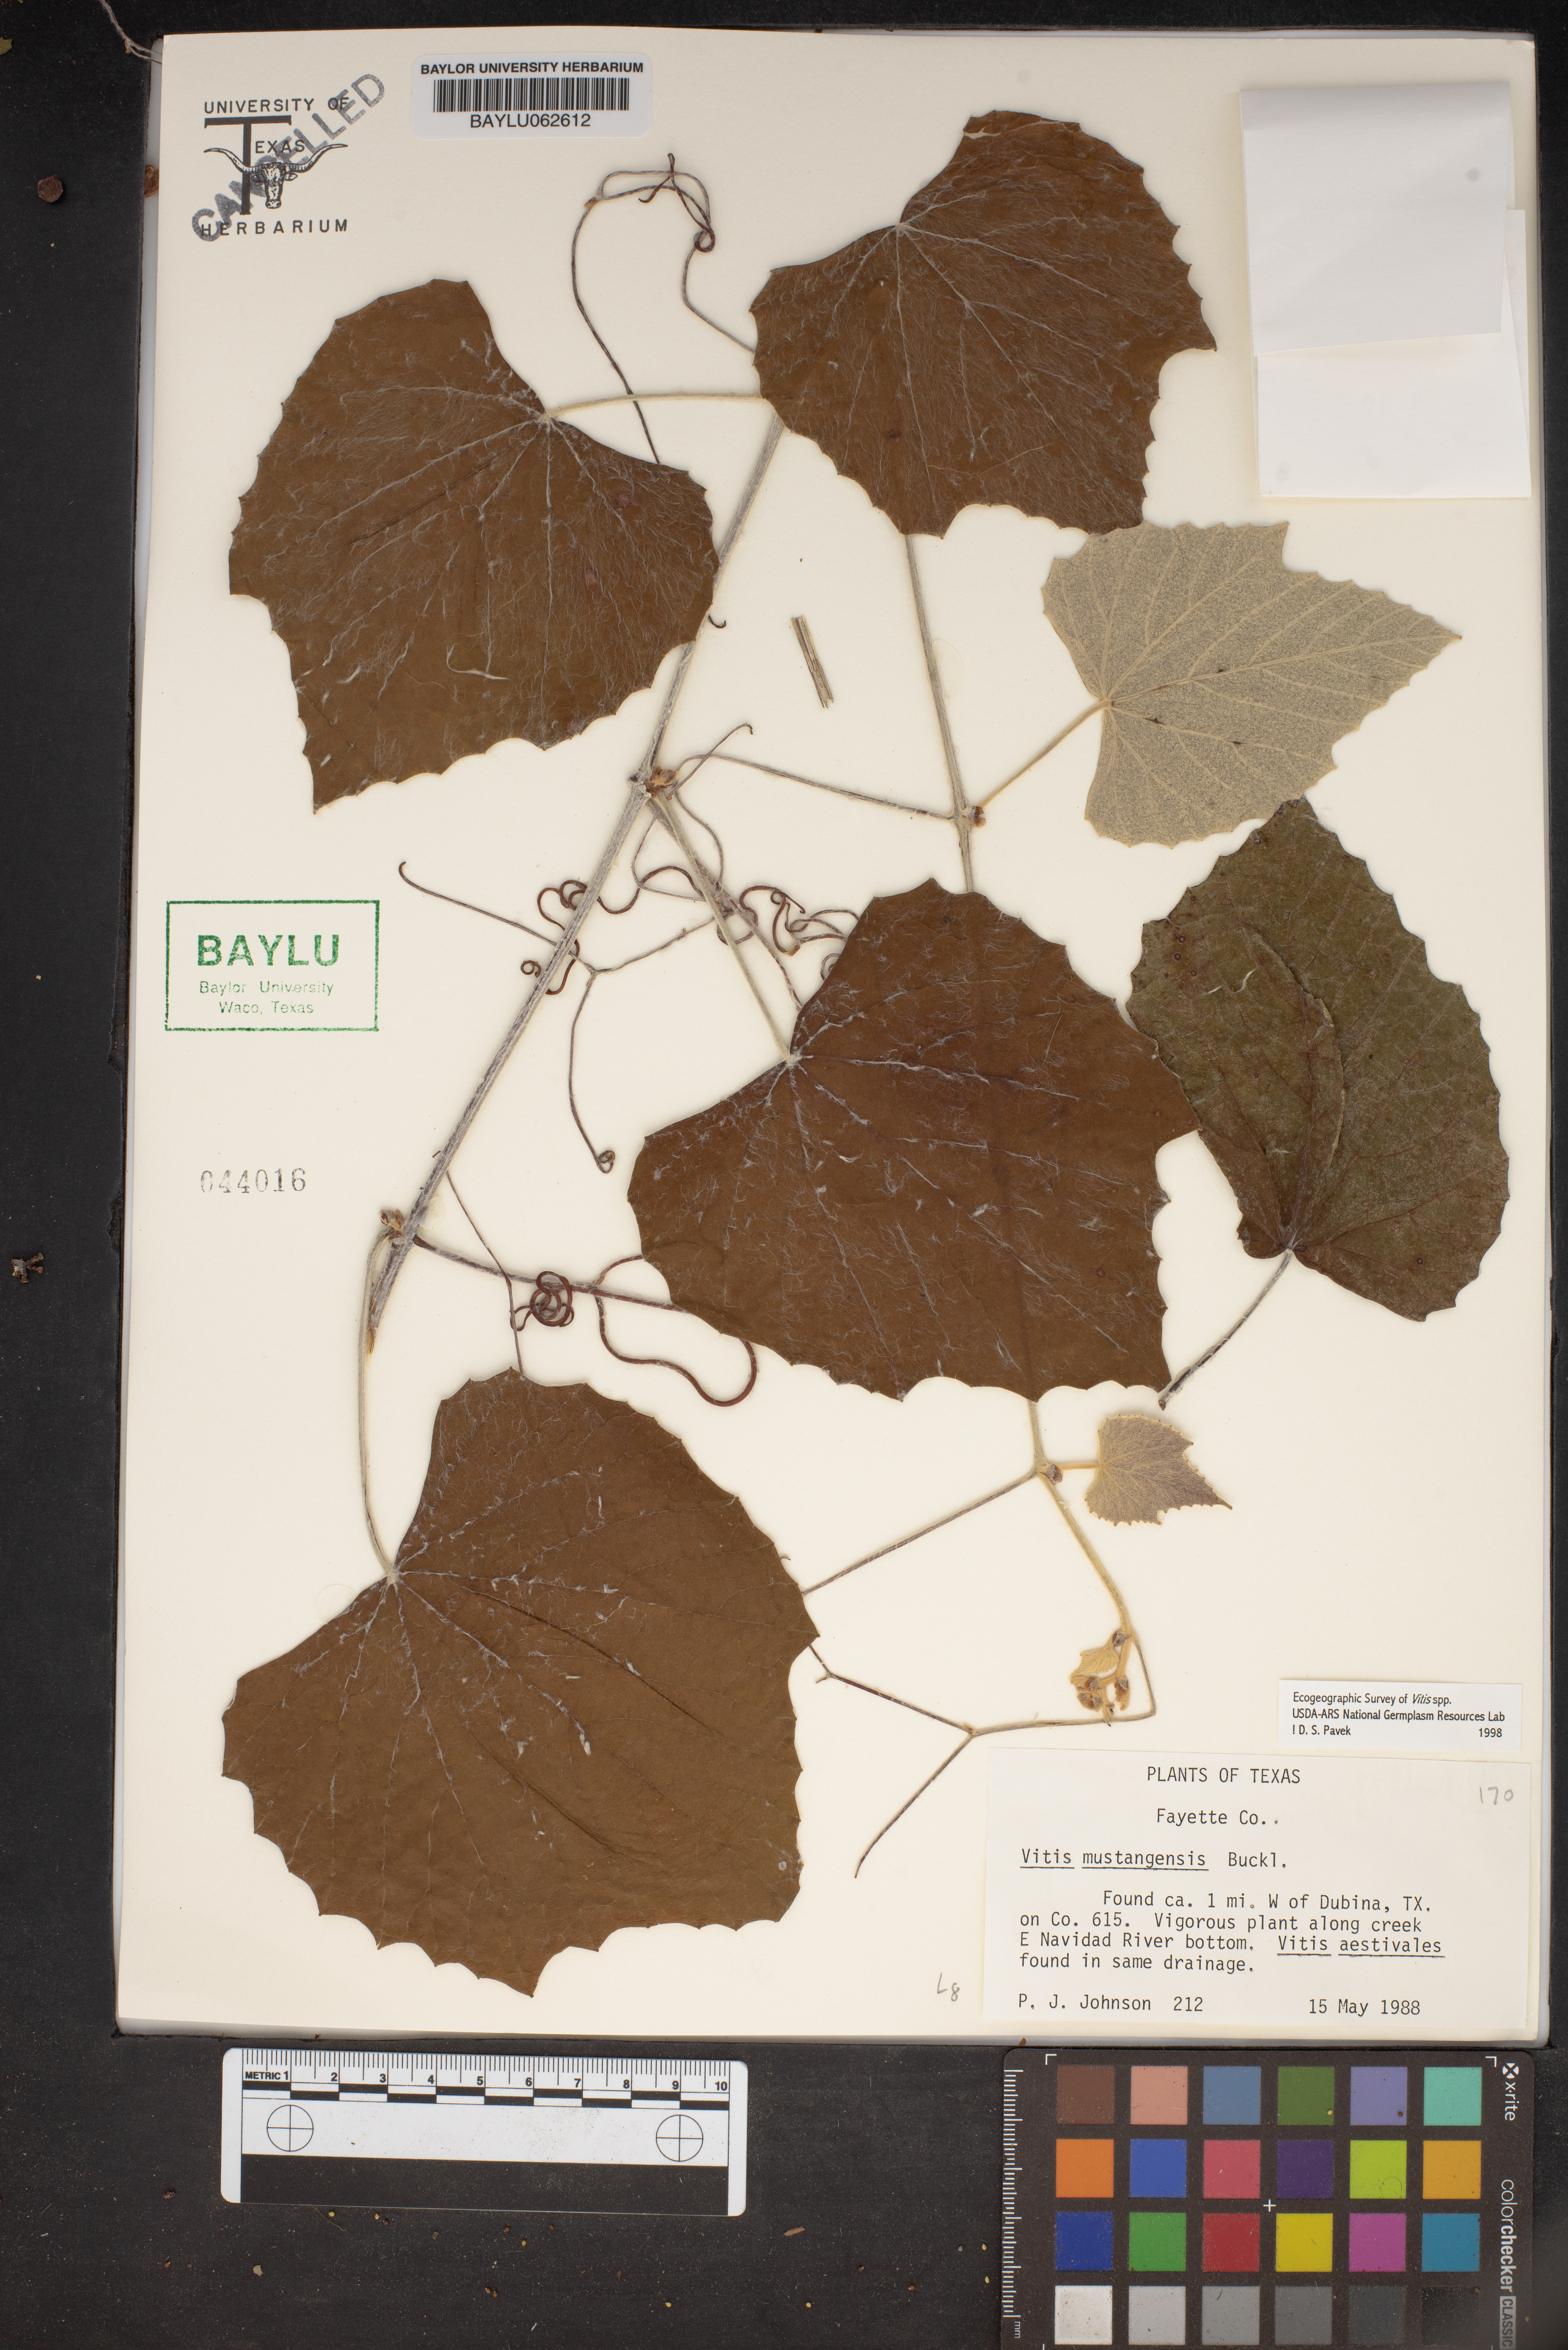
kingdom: Plantae
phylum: Tracheophyta
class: Magnoliopsida
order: Vitales
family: Vitaceae
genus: Vitis
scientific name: Vitis mustangensis
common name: Mustang grape
